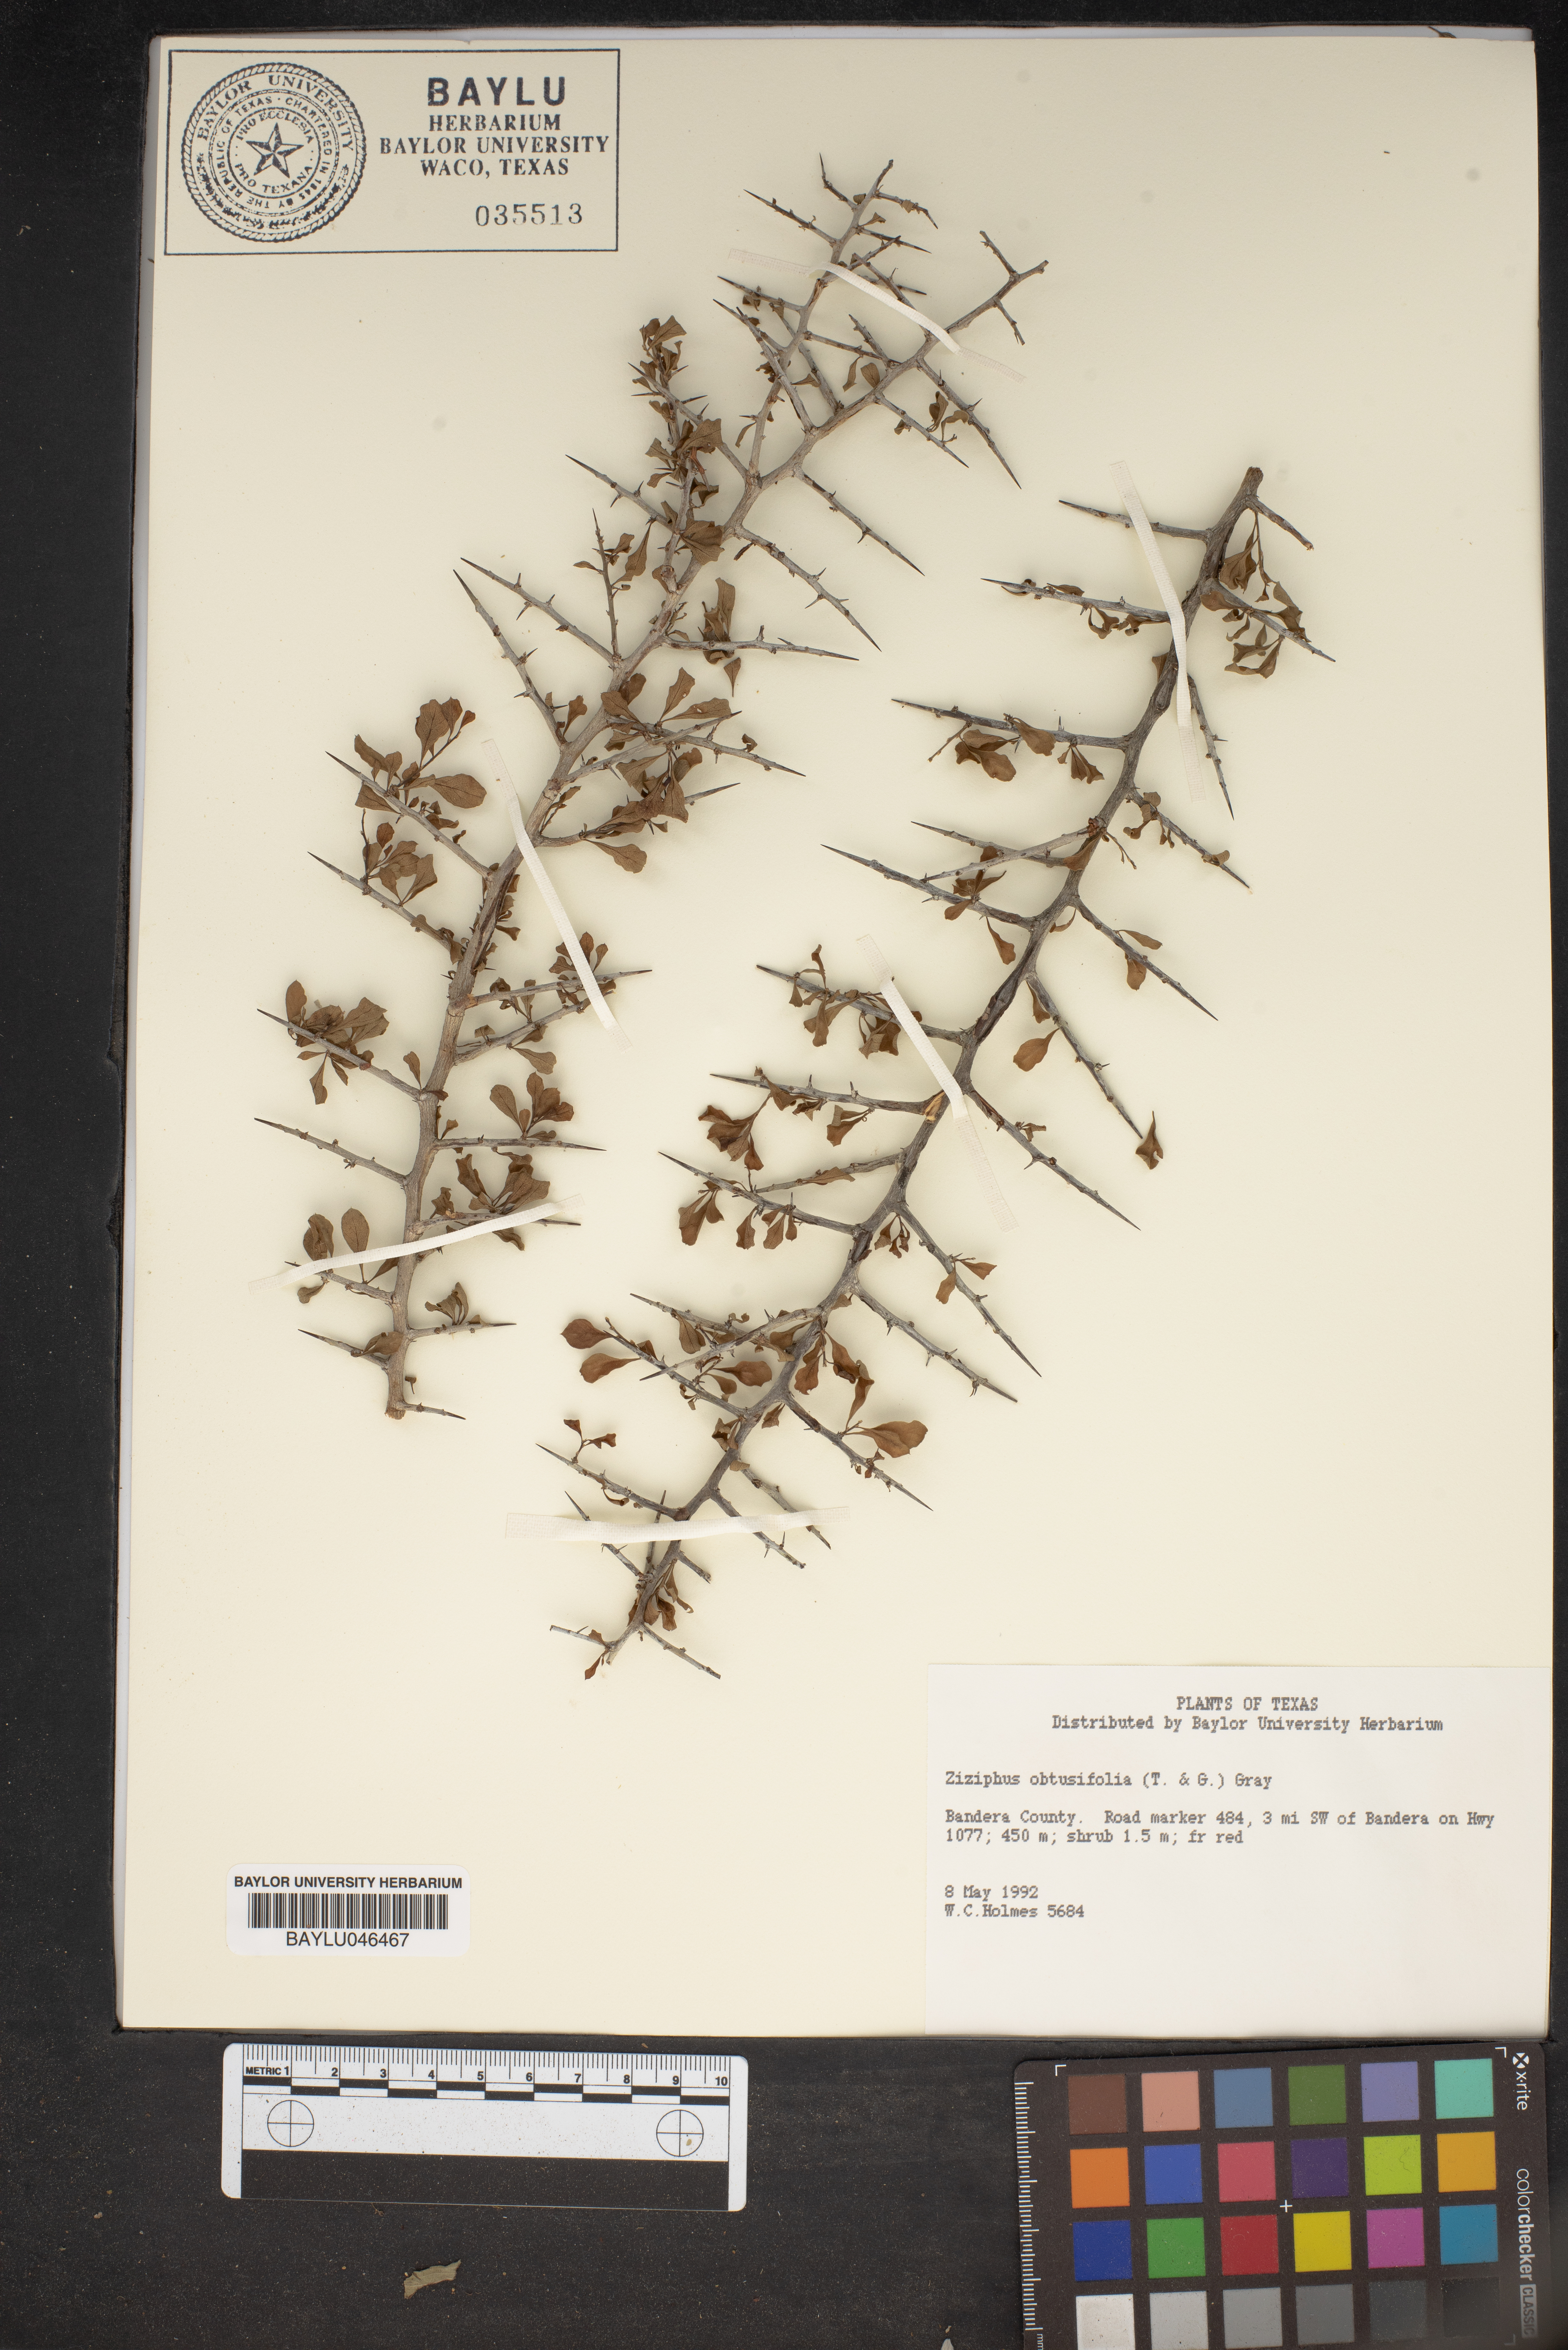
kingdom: Plantae
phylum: Tracheophyta
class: Magnoliopsida
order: Rosales
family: Rhamnaceae
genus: Sarcomphalus
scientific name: Sarcomphalus obtusifolius
